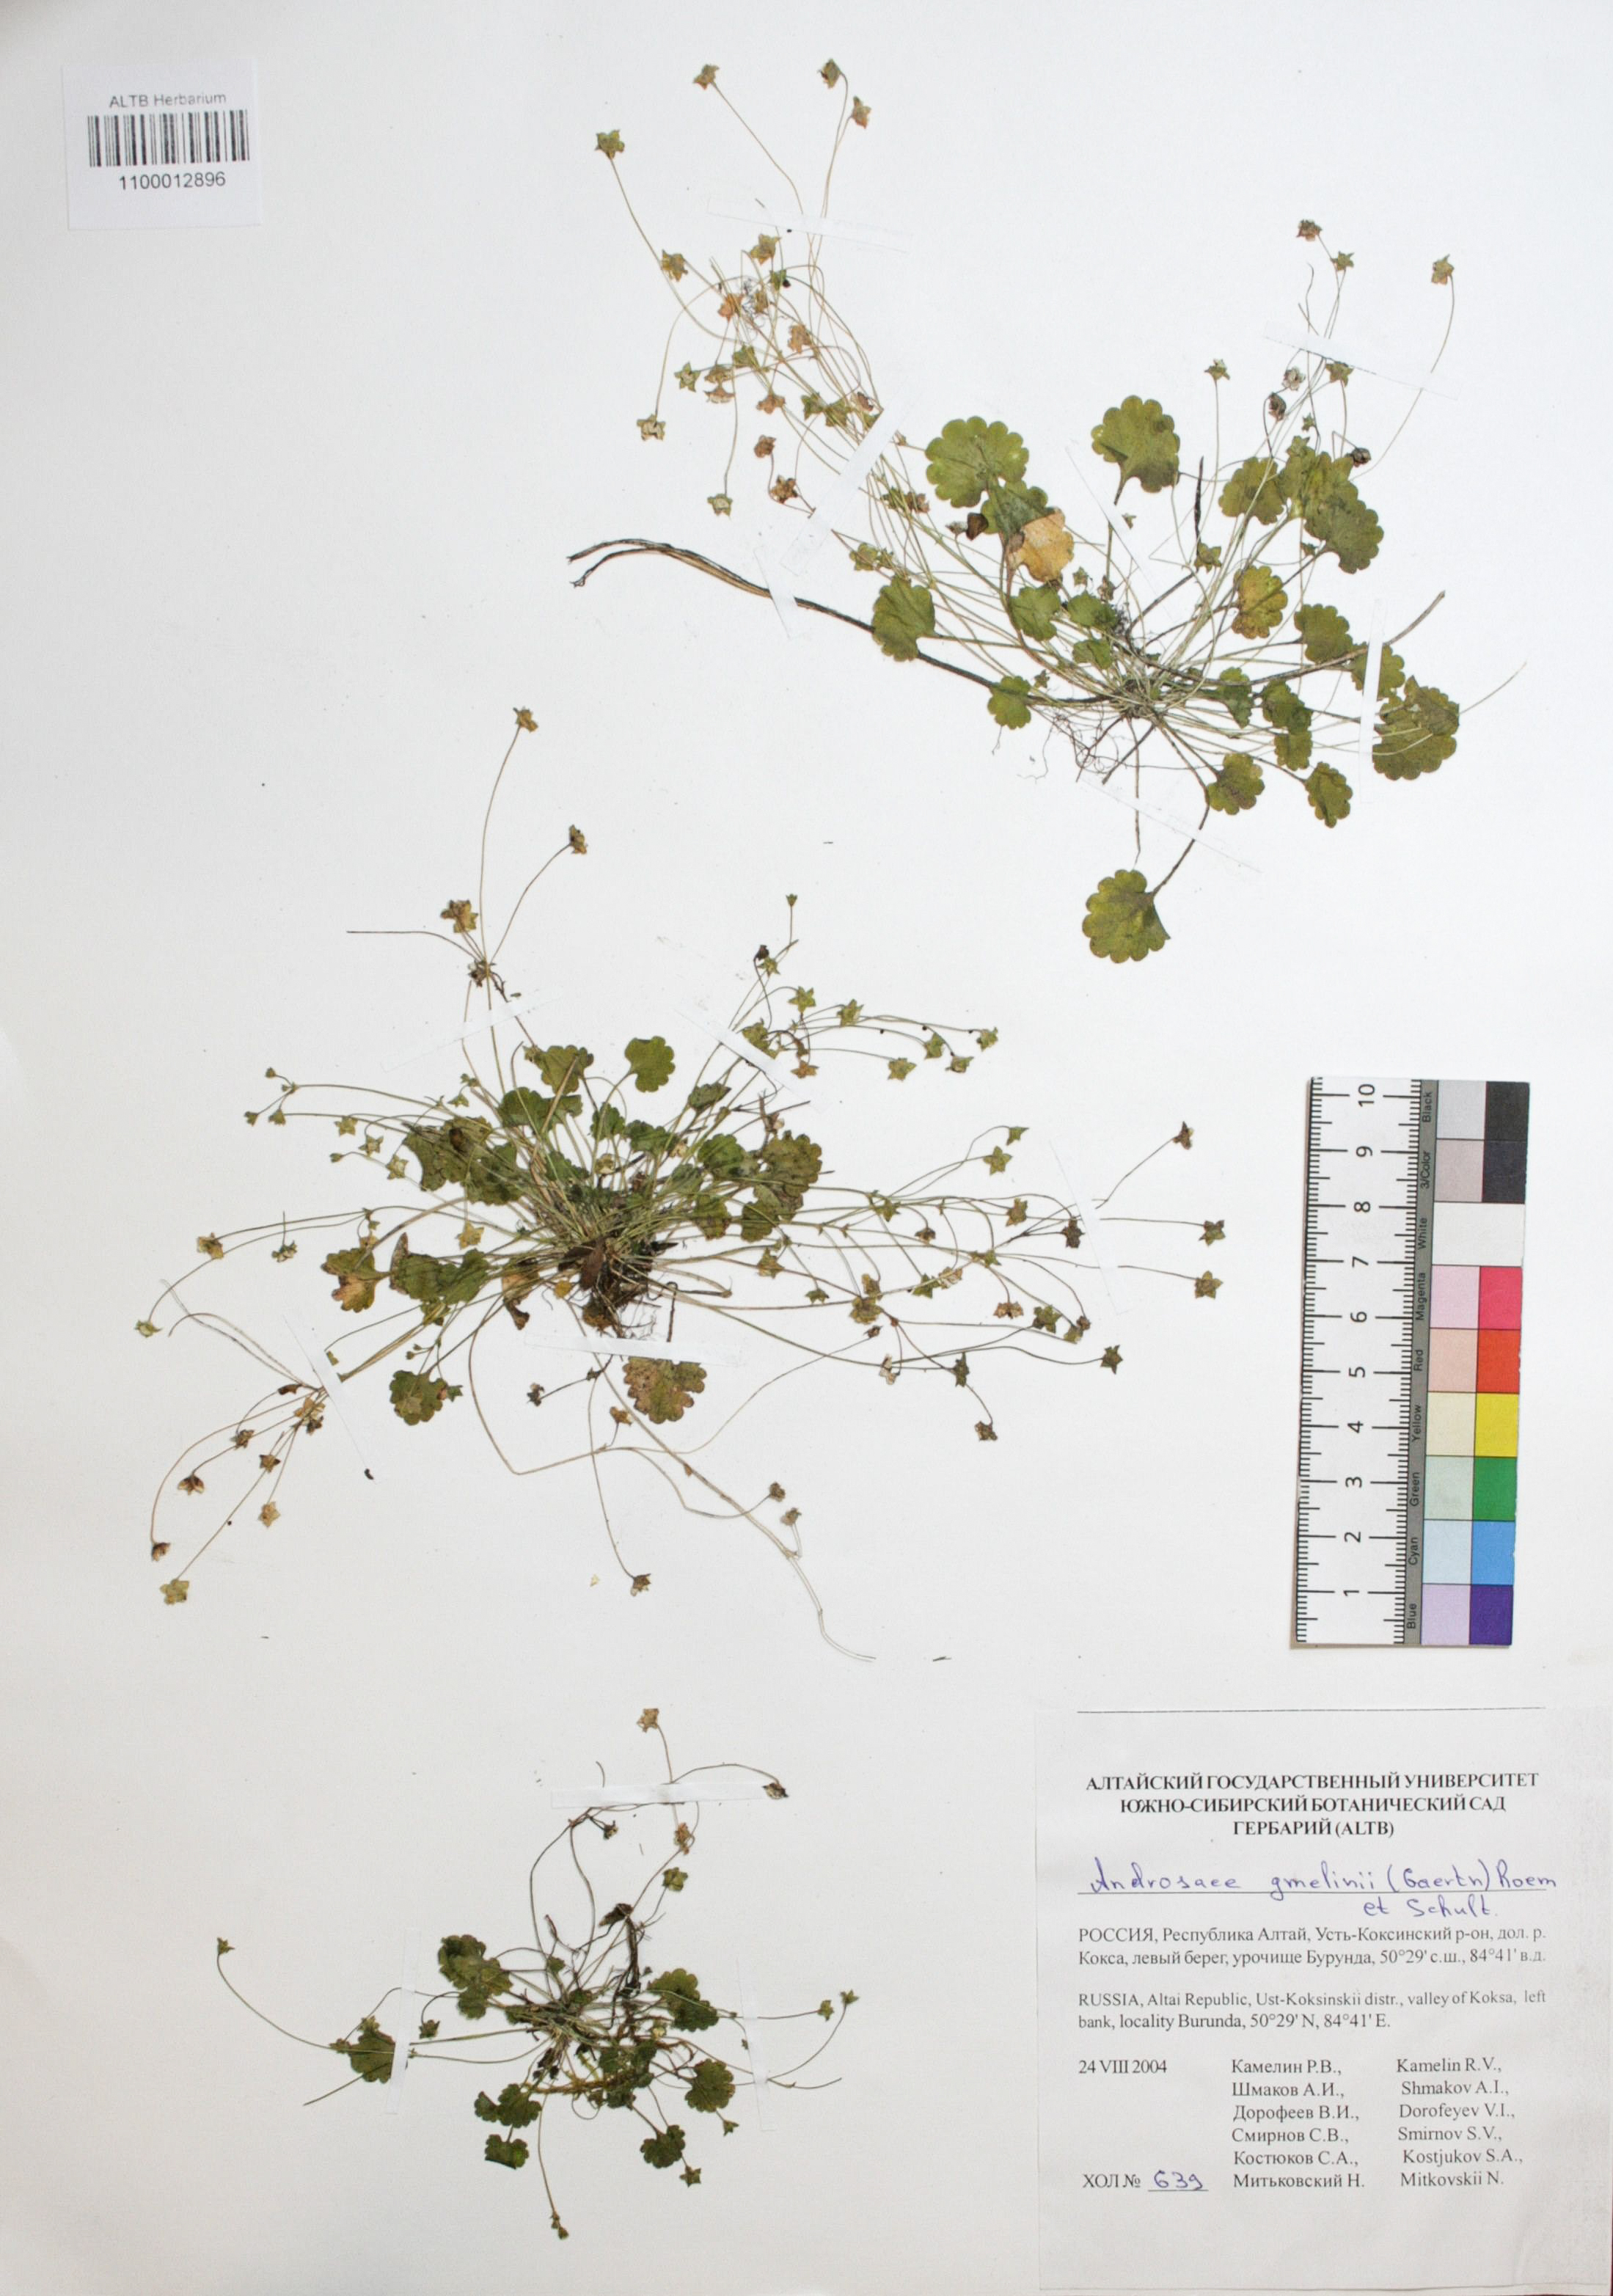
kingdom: Plantae
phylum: Tracheophyta
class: Magnoliopsida
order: Ericales
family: Primulaceae
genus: Androsace
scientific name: Androsace gmelinii
